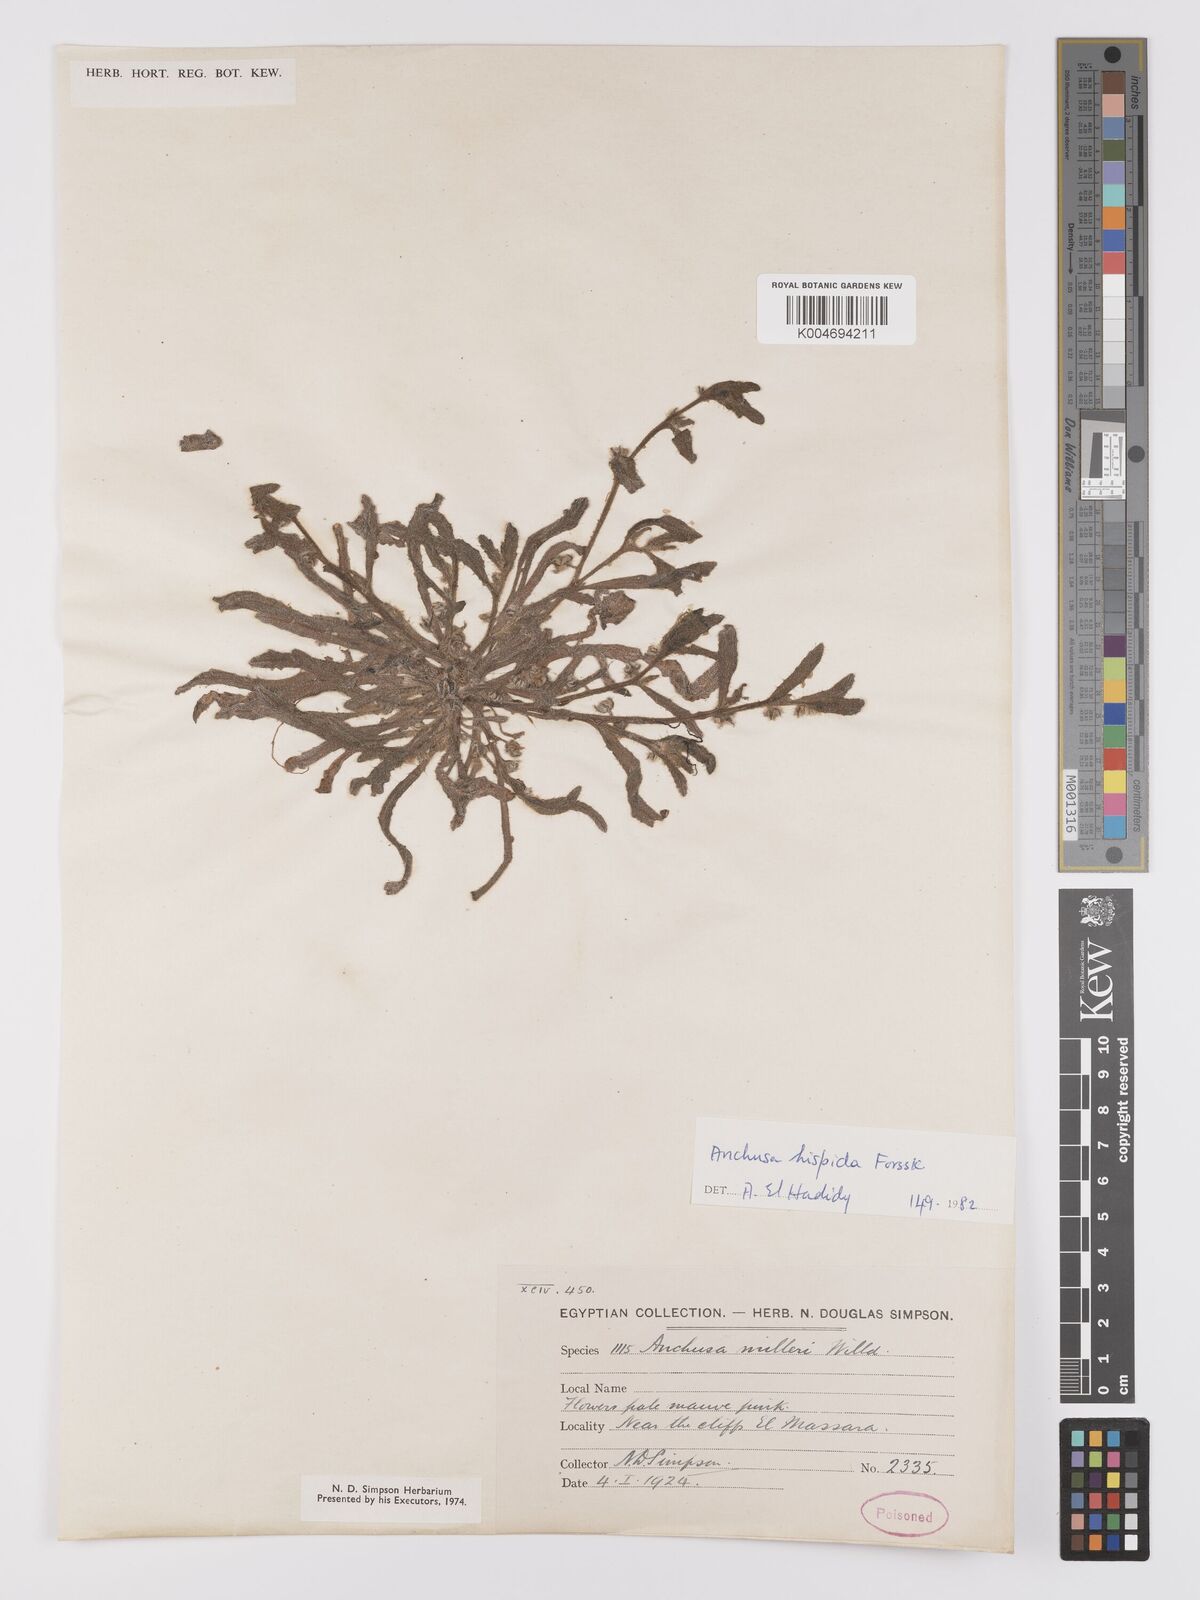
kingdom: Plantae
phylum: Tracheophyta
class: Magnoliopsida
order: Boraginales
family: Boraginaceae
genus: Gastrocotyle
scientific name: Gastrocotyle hispida
